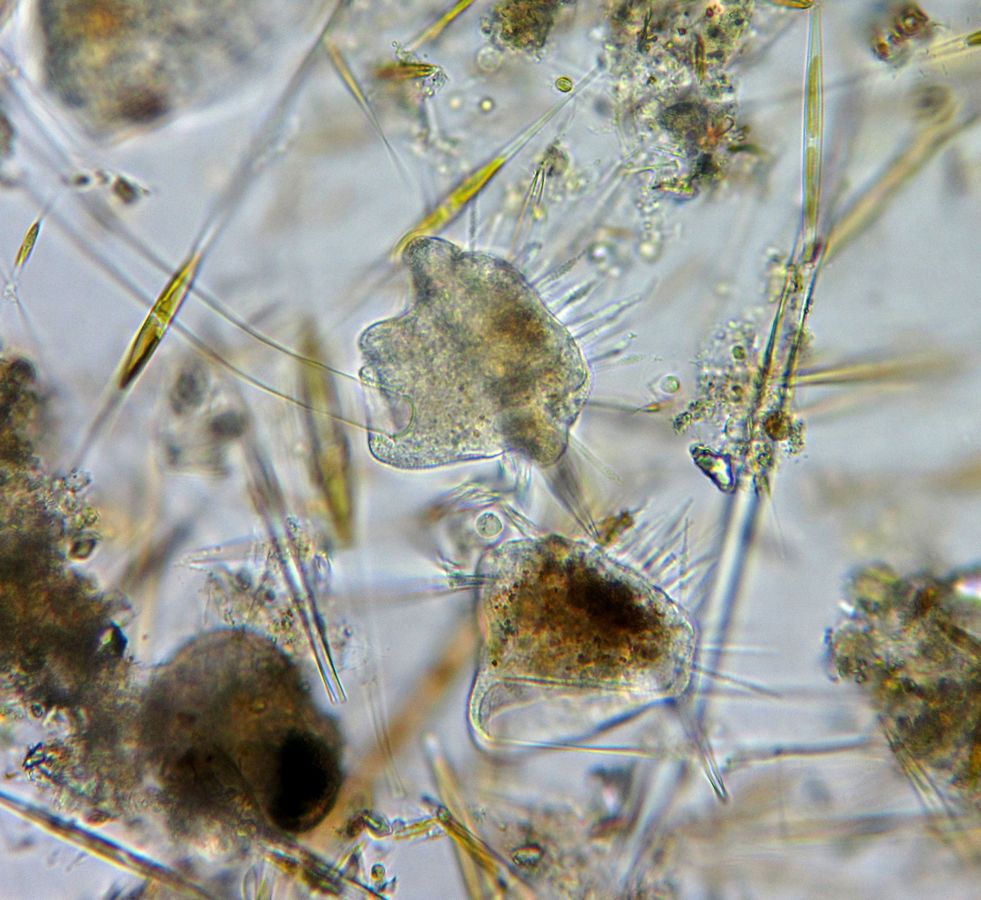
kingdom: Chromista
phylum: Ciliophora
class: Phyllopharyngea
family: Ephelotidae
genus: Ephelota
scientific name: Ephelota mammillata
